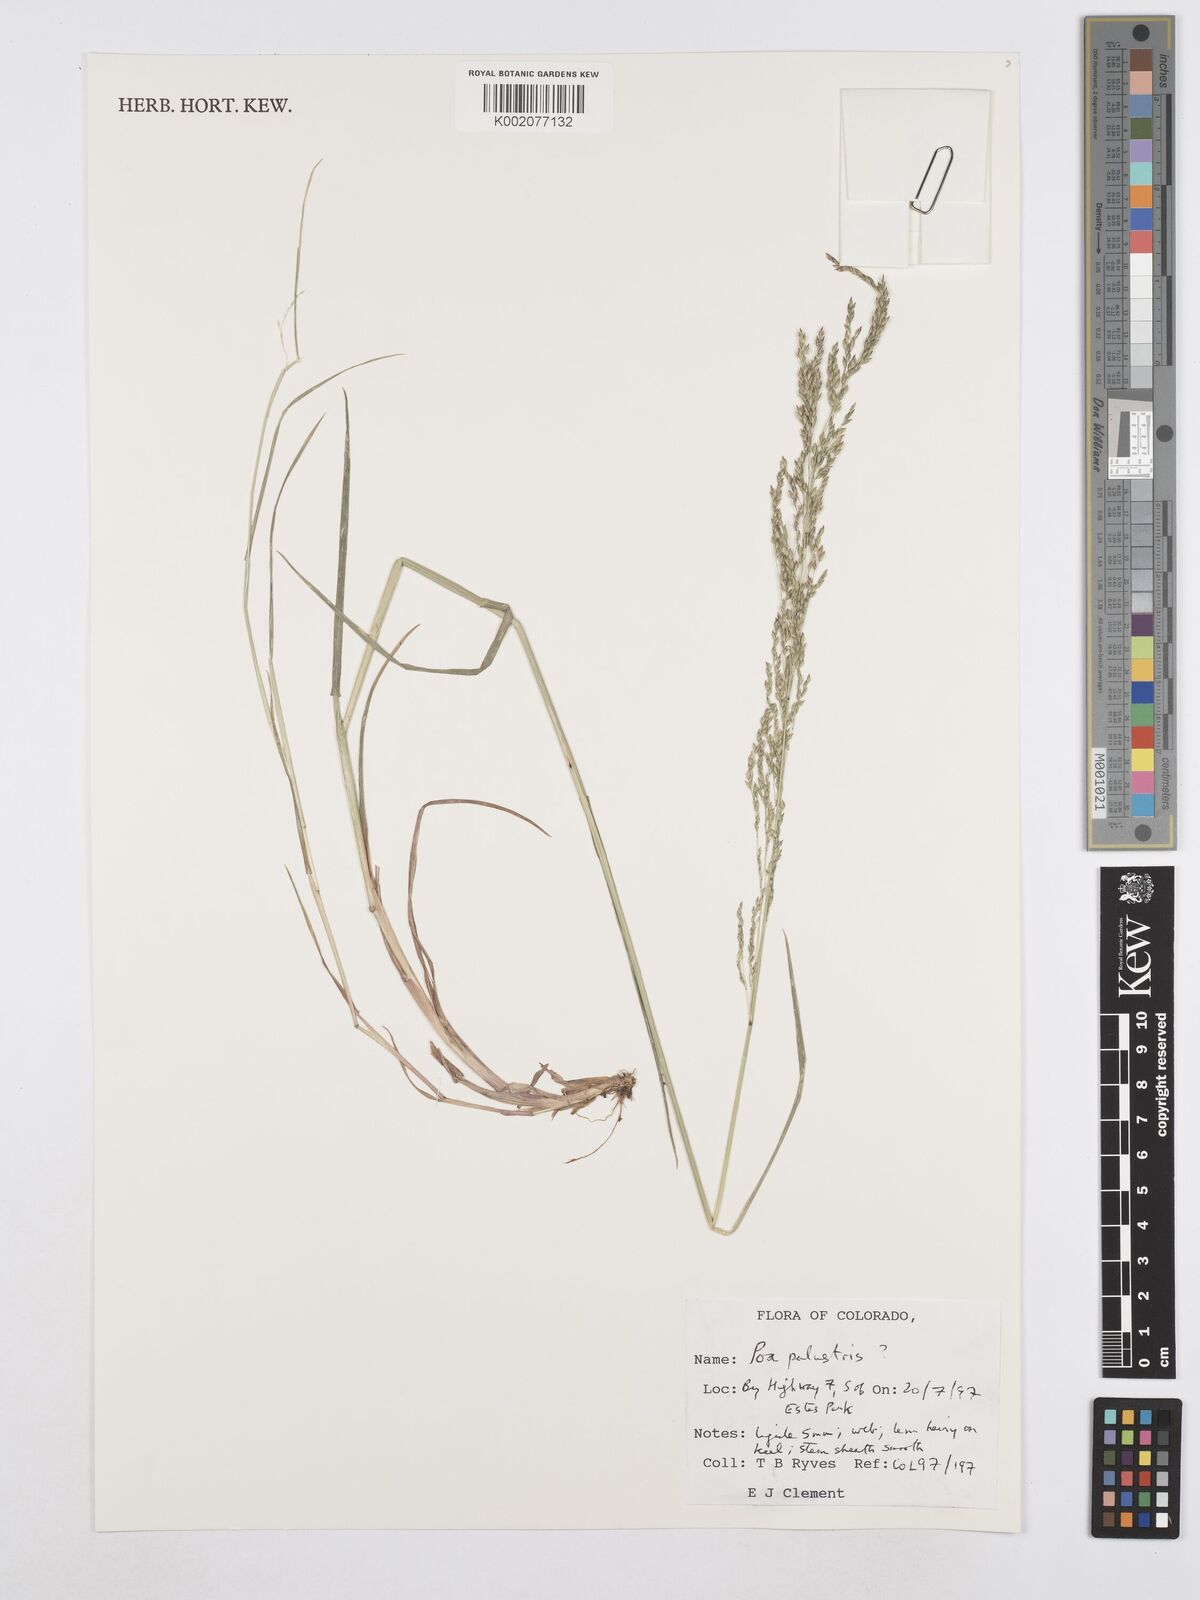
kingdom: Plantae
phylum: Tracheophyta
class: Liliopsida
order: Poales
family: Poaceae
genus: Poa
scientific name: Poa palustris
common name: Swamp meadow-grass
